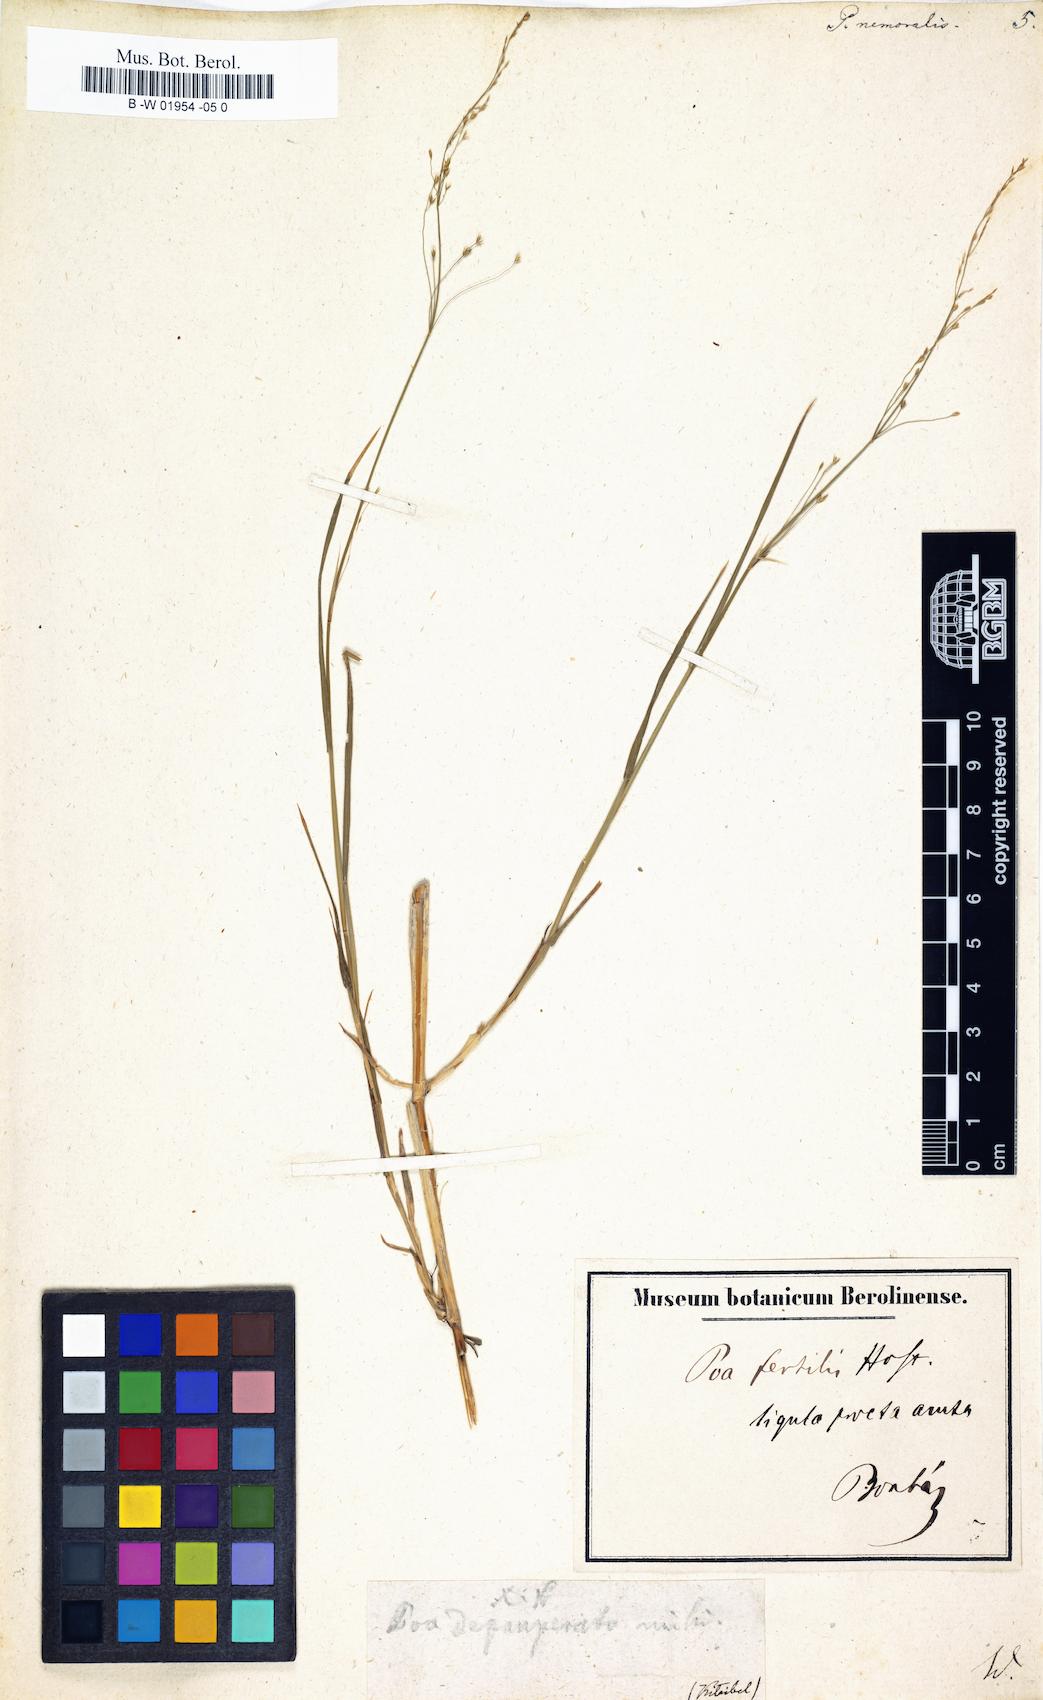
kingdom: Plantae
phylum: Tracheophyta
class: Liliopsida
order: Poales
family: Poaceae
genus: Poa
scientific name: Poa nemoralis
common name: Wood bluegrass
